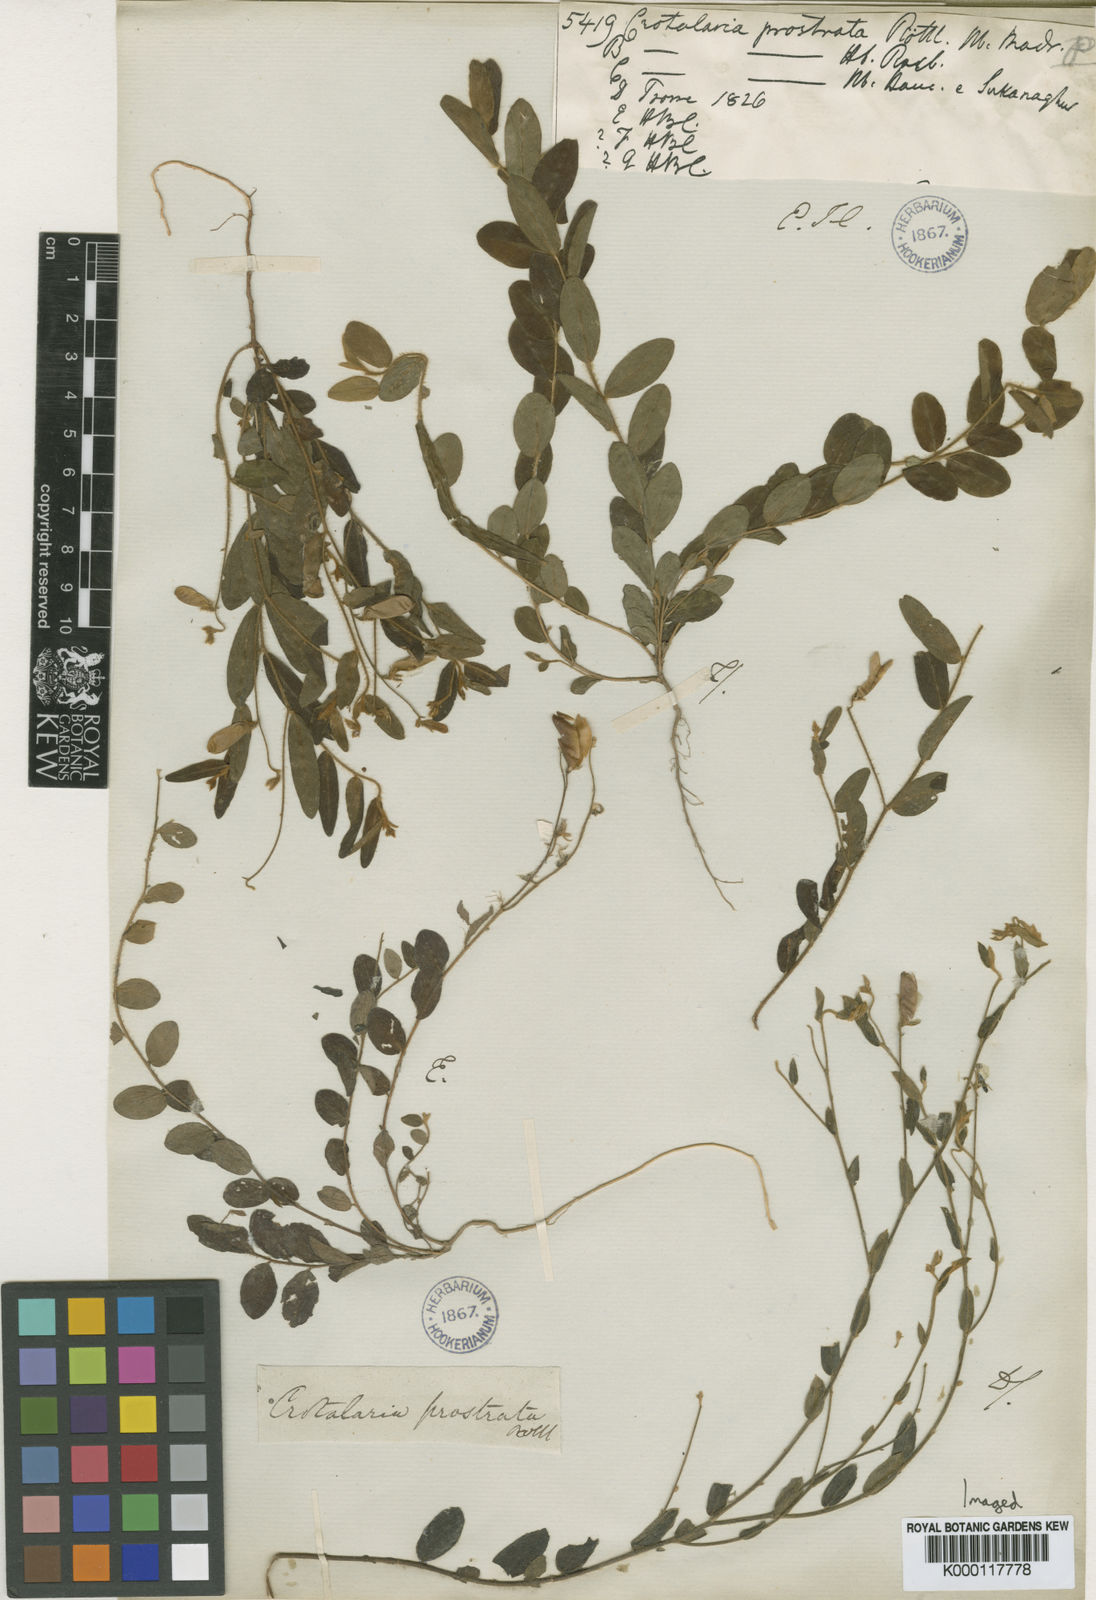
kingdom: Plantae
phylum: Tracheophyta
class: Magnoliopsida
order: Fabales
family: Fabaceae
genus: Crotalaria
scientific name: Crotalaria prostrata
